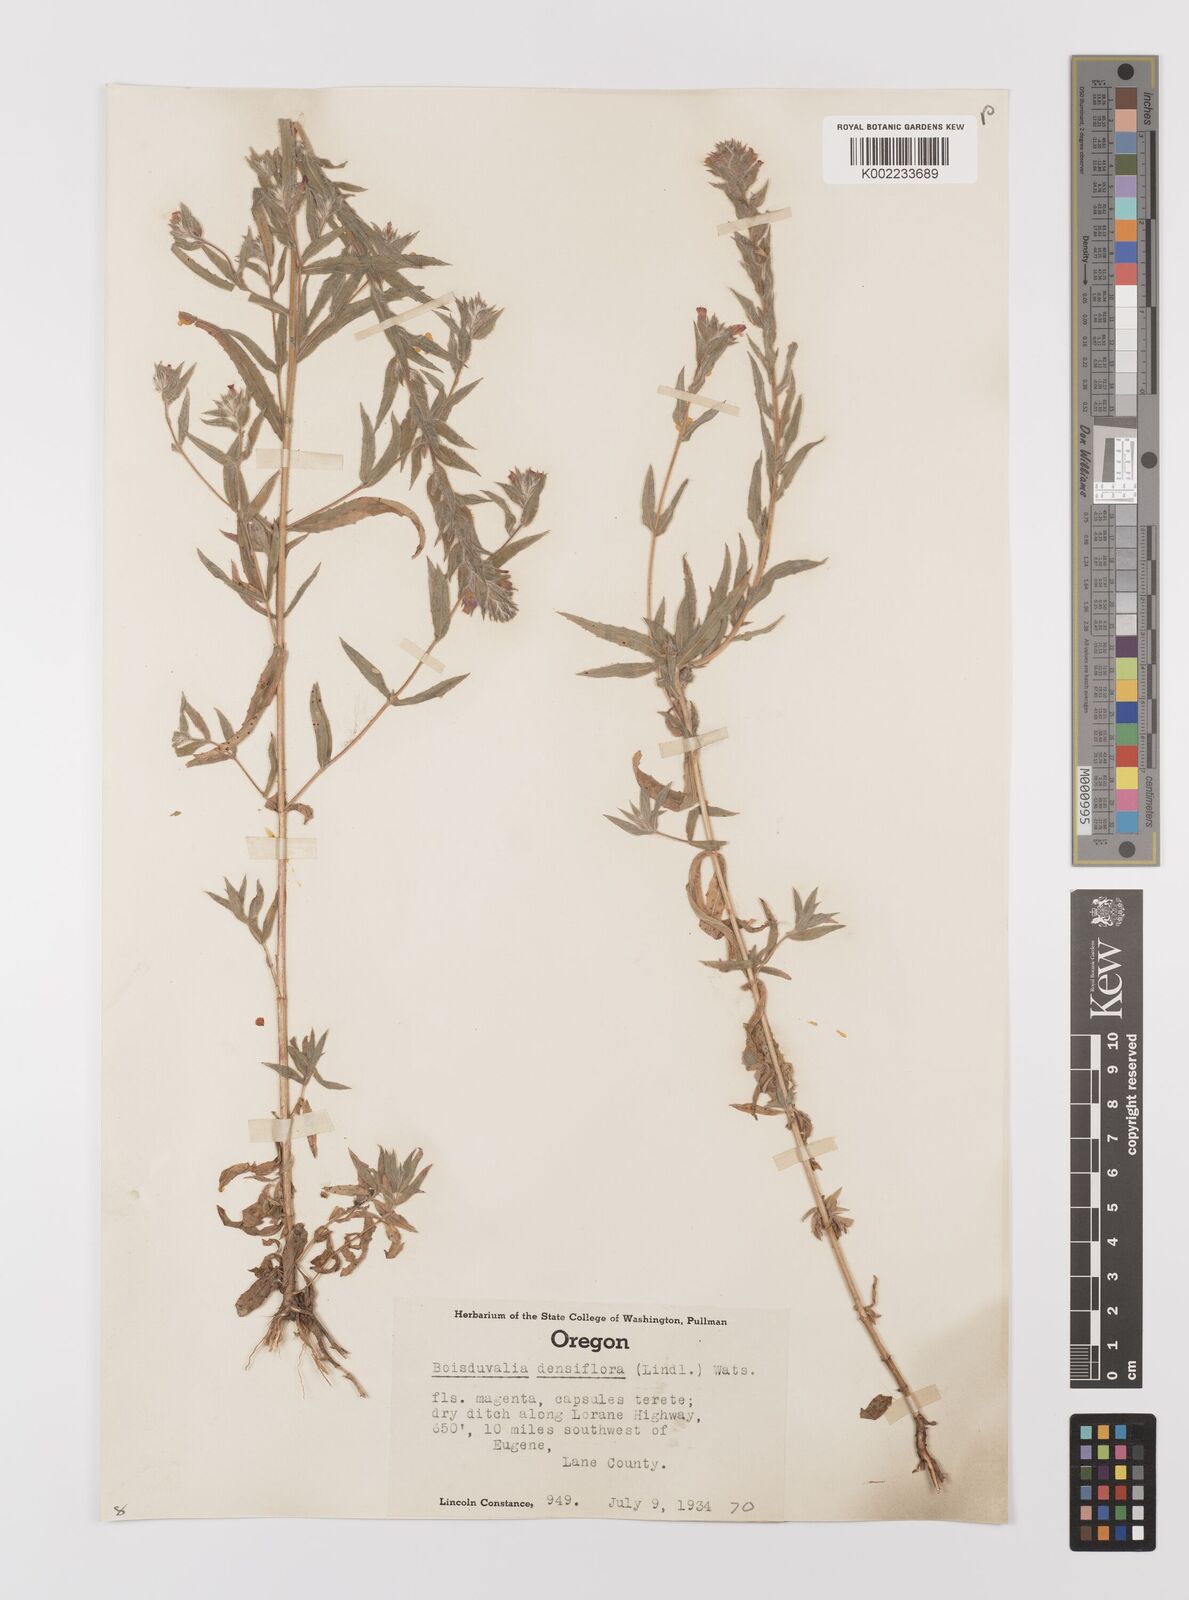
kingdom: Plantae
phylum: Tracheophyta
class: Magnoliopsida
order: Myrtales
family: Onagraceae
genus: Epilobium
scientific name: Epilobium densiflorum
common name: Dense spike-primrose
